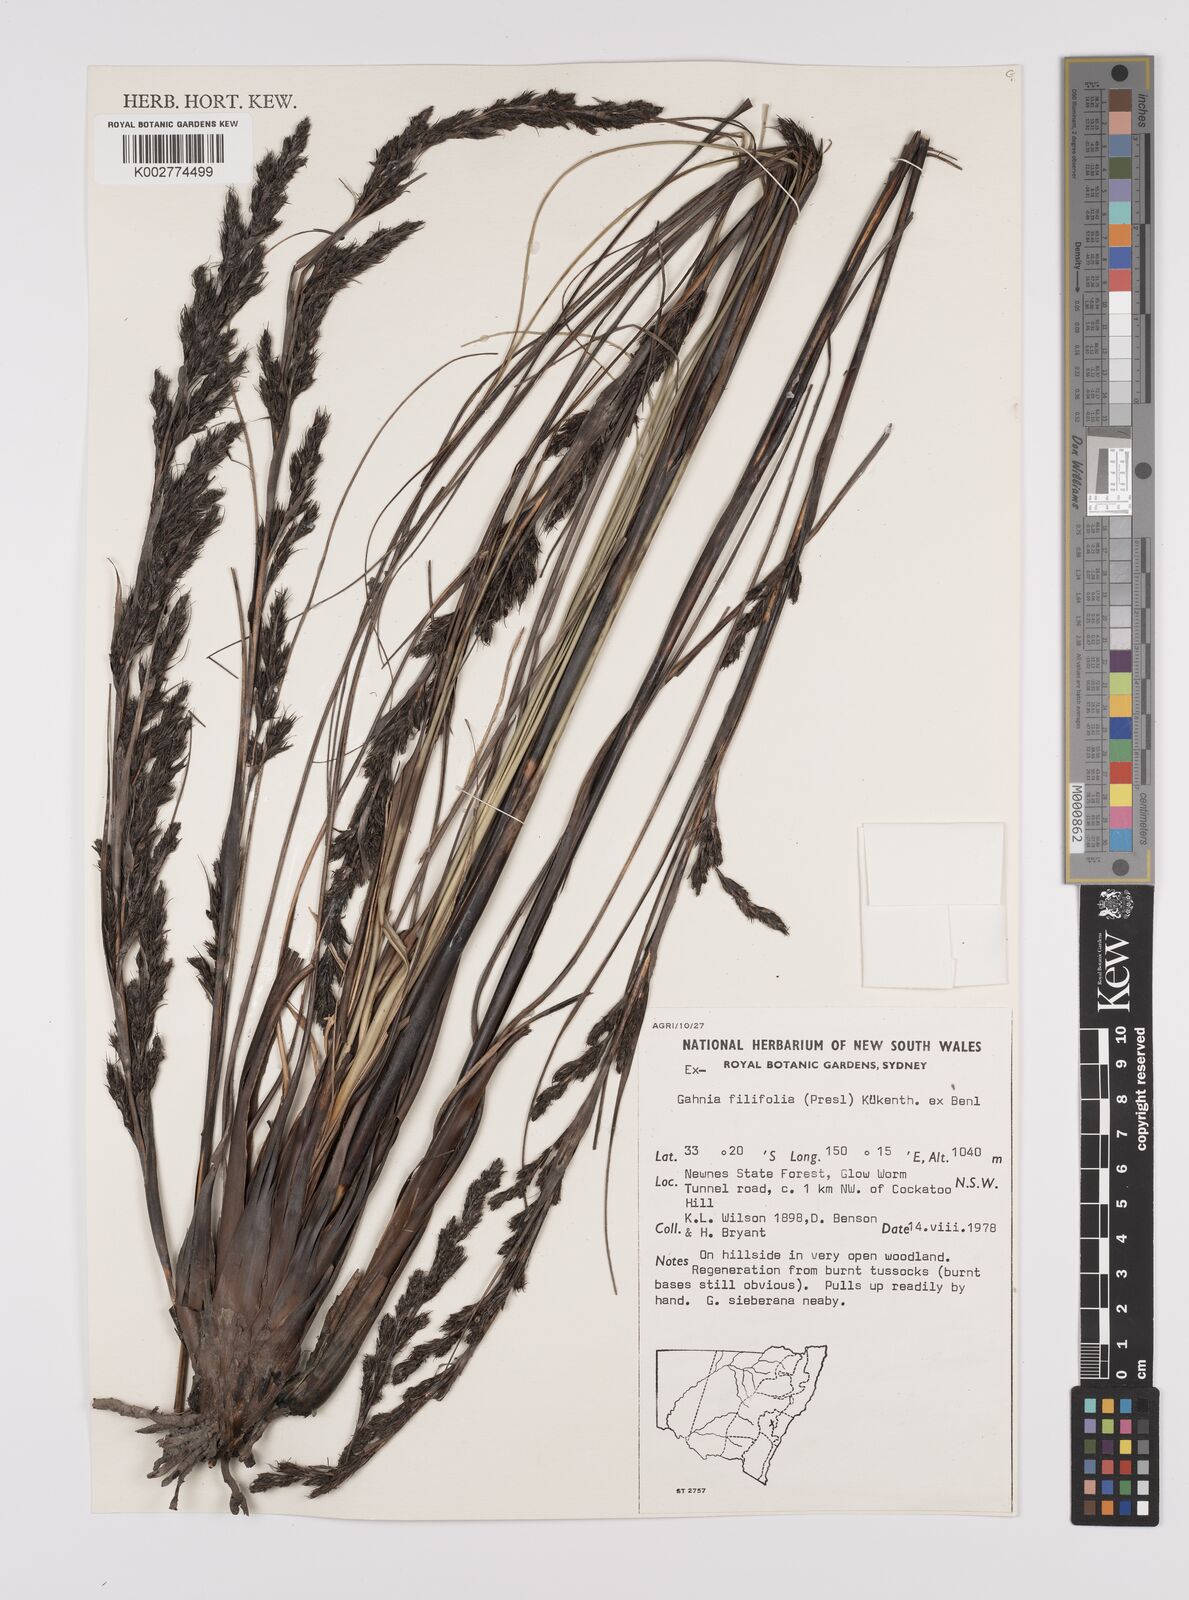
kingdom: Plantae
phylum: Tracheophyta
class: Liliopsida
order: Poales
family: Cyperaceae
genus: Gahnia
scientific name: Gahnia filifolia
